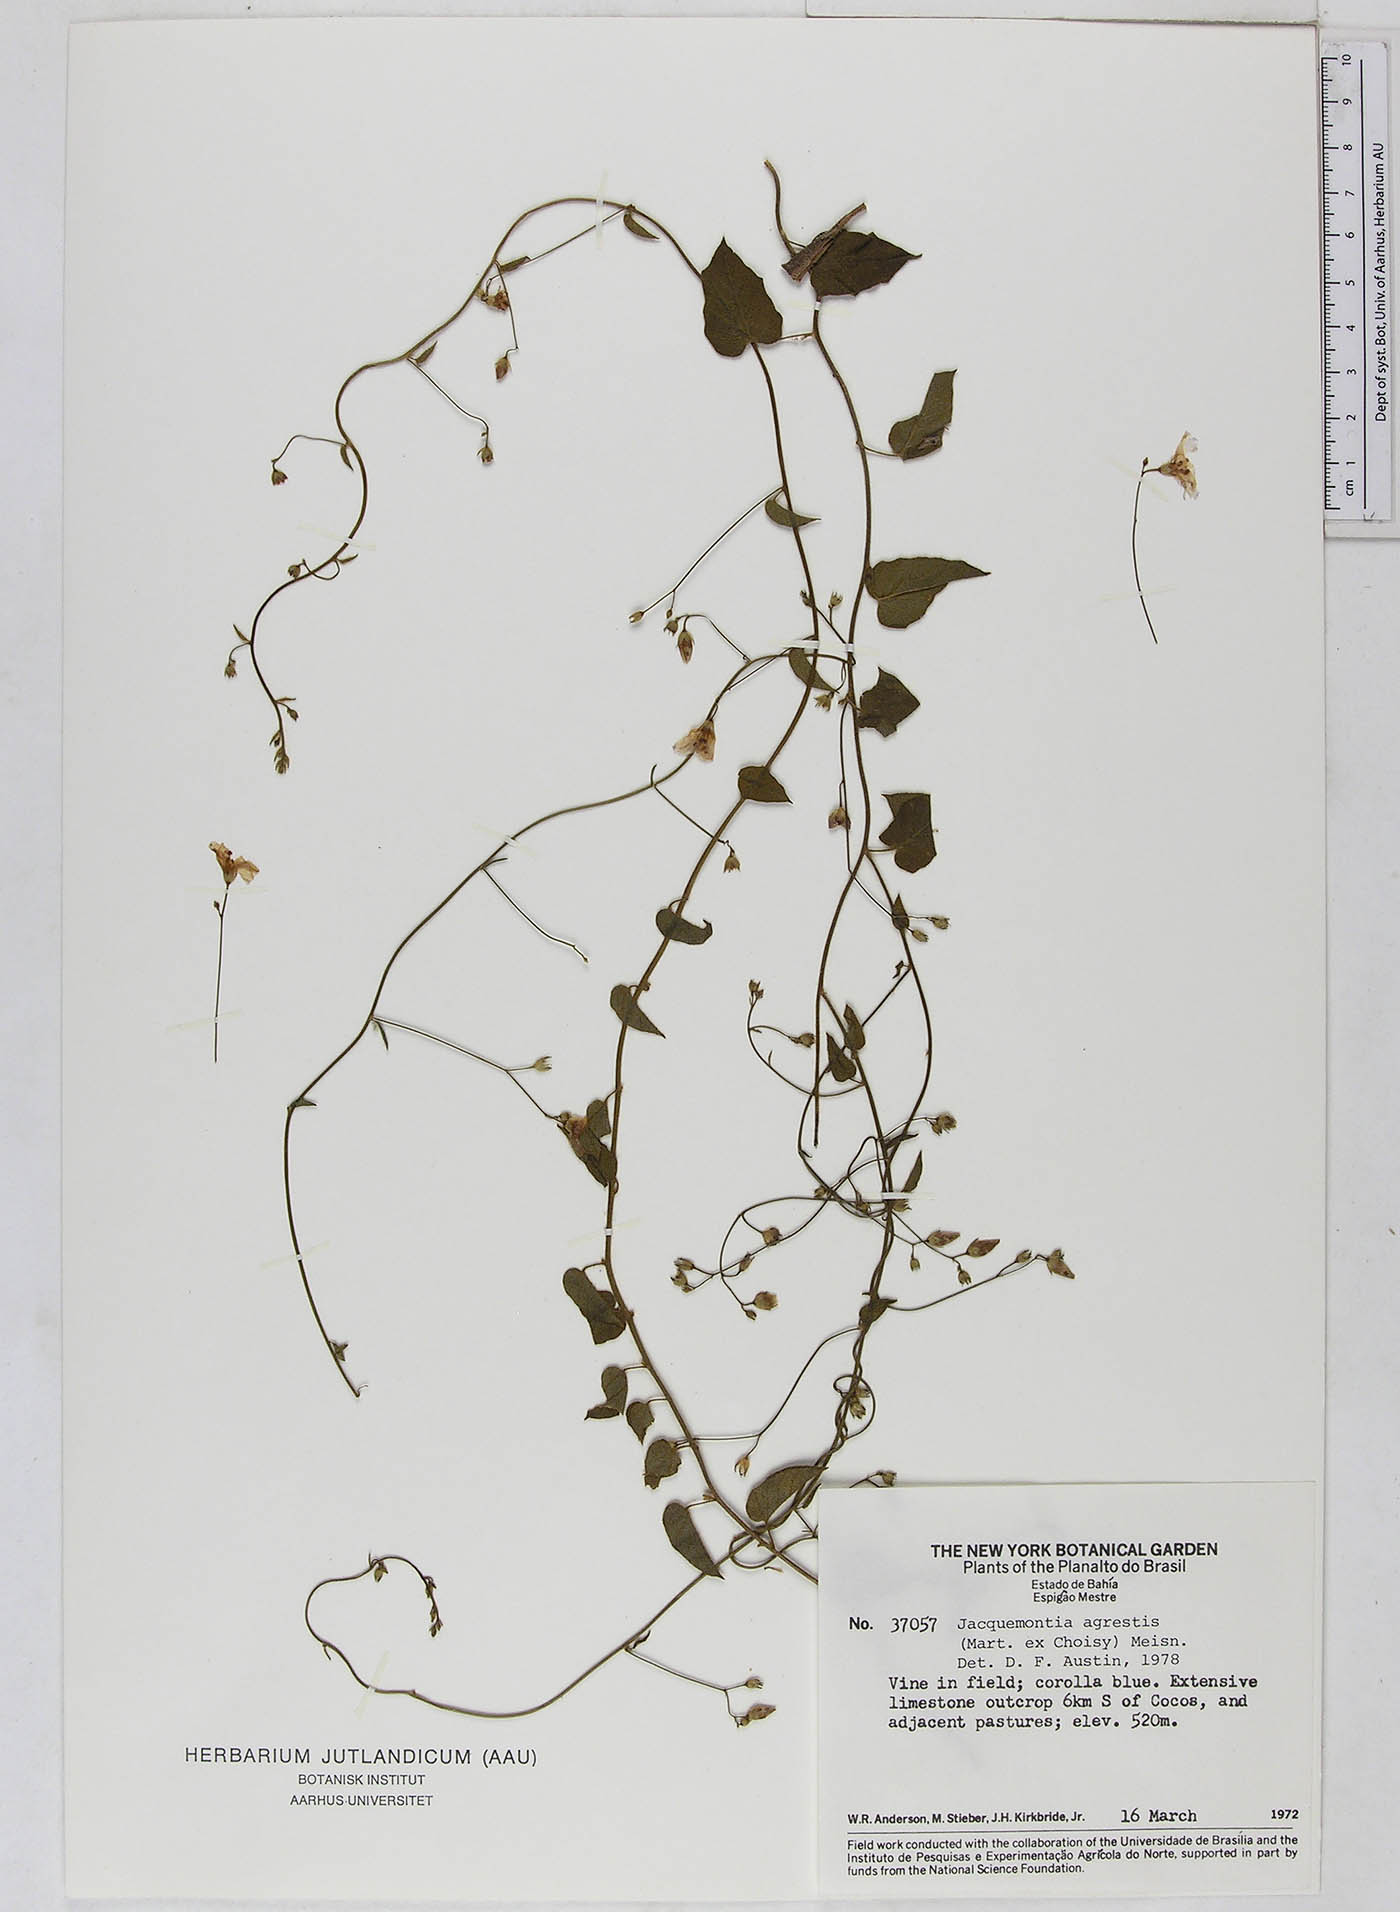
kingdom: Plantae
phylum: Tracheophyta
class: Magnoliopsida
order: Solanales
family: Convolvulaceae
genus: Jacquemontia
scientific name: Jacquemontia agrestis
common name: Midnightblue clustervine
